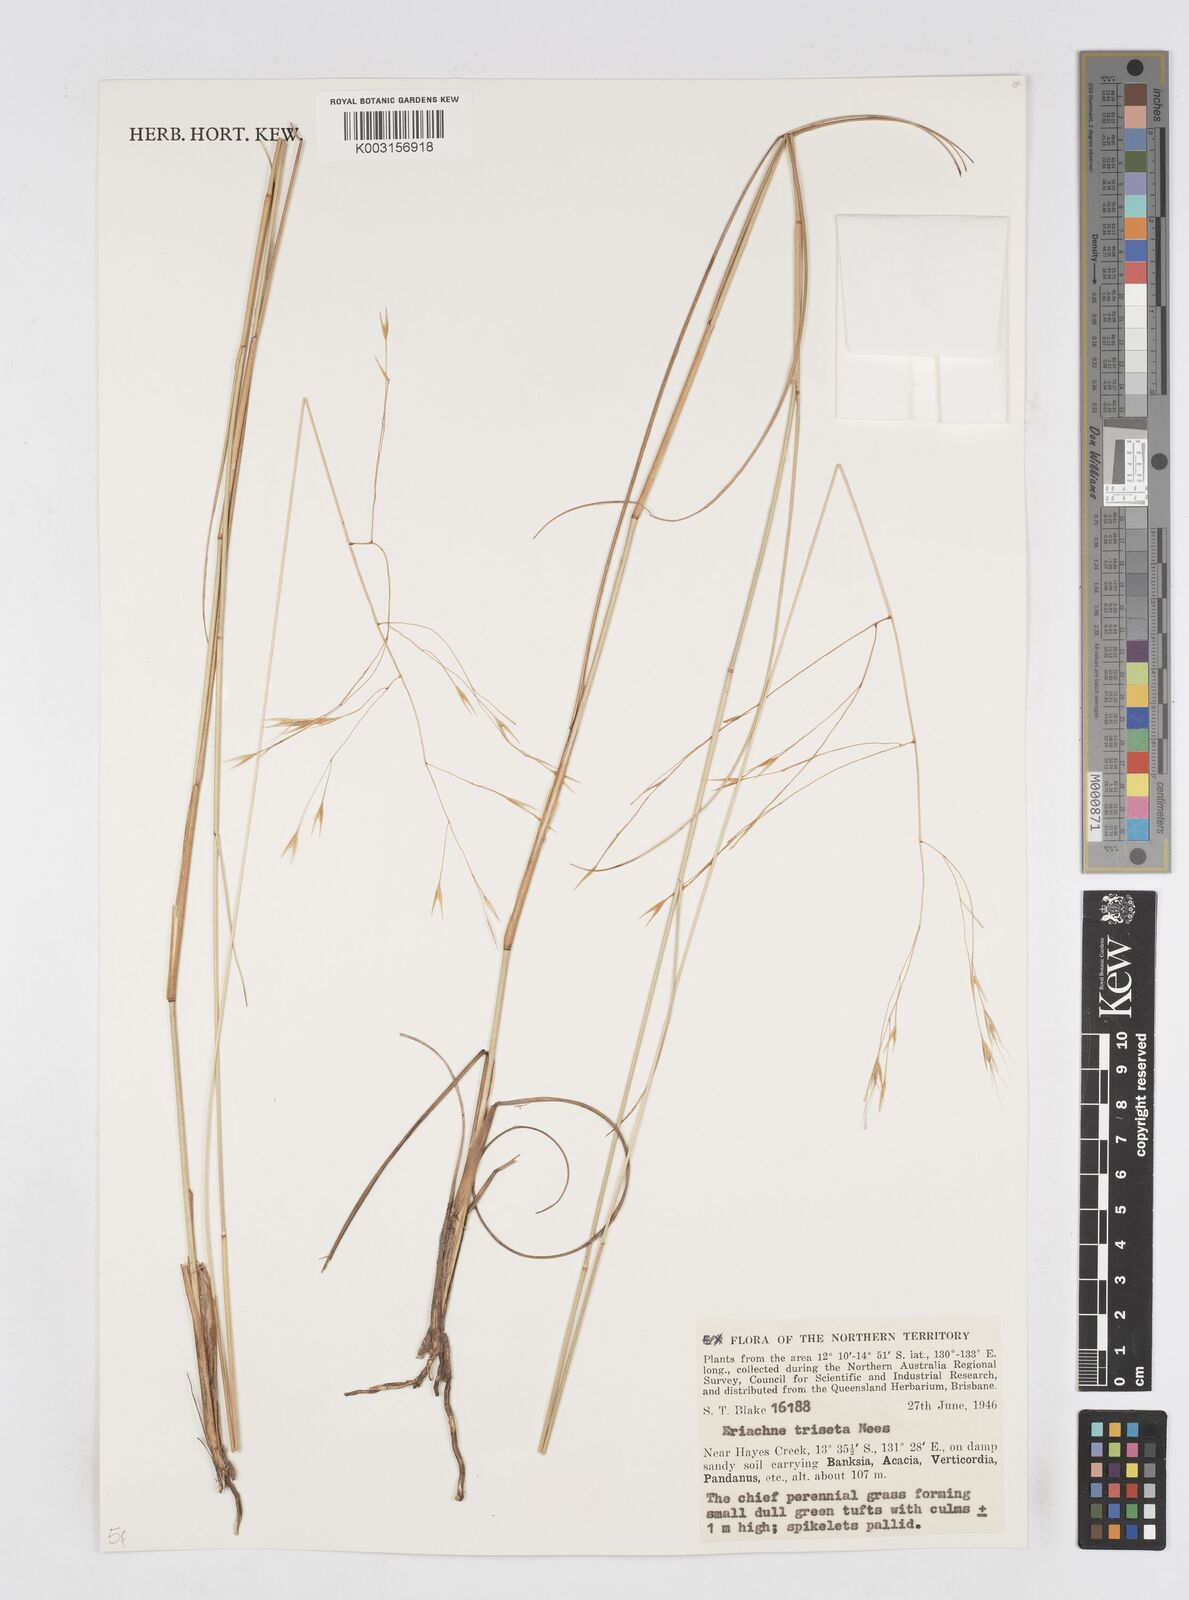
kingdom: Plantae
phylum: Tracheophyta
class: Liliopsida
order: Poales
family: Poaceae
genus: Eriachne
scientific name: Eriachne triseta
